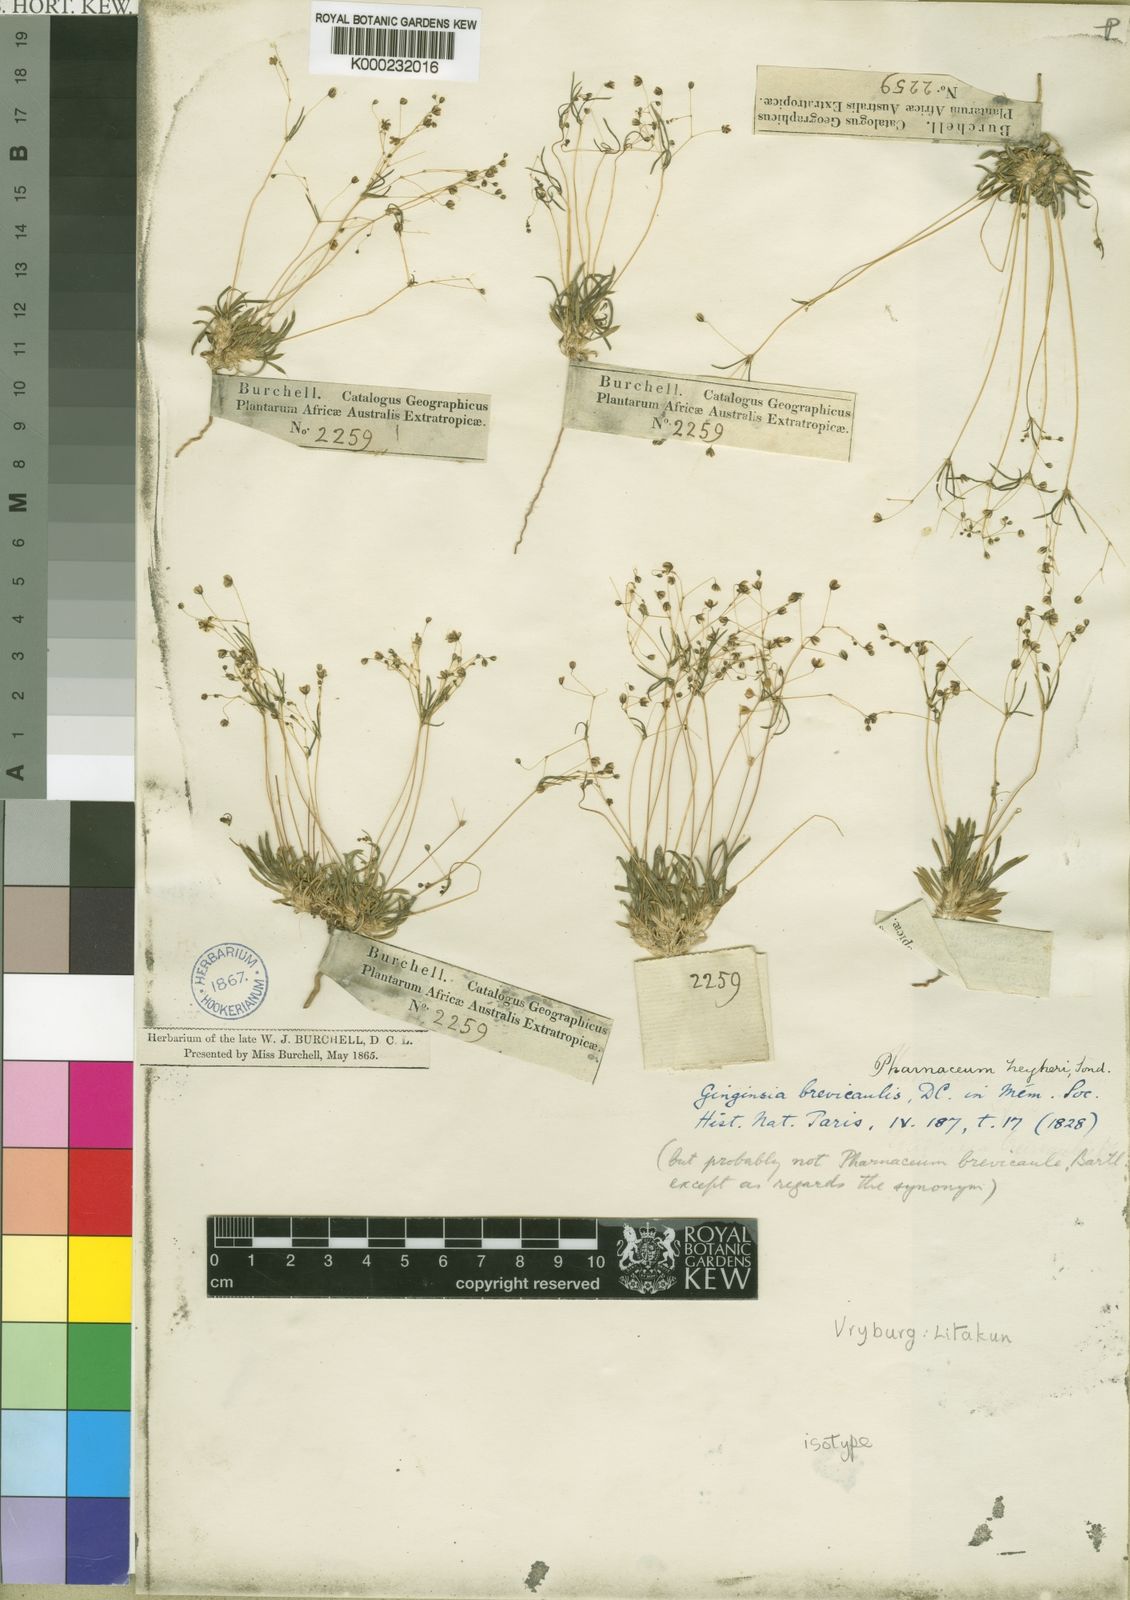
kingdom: Plantae
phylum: Tracheophyta
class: Magnoliopsida
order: Caryophyllales
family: Molluginaceae
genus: Pharnaceum
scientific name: Pharnaceum brevicaule
